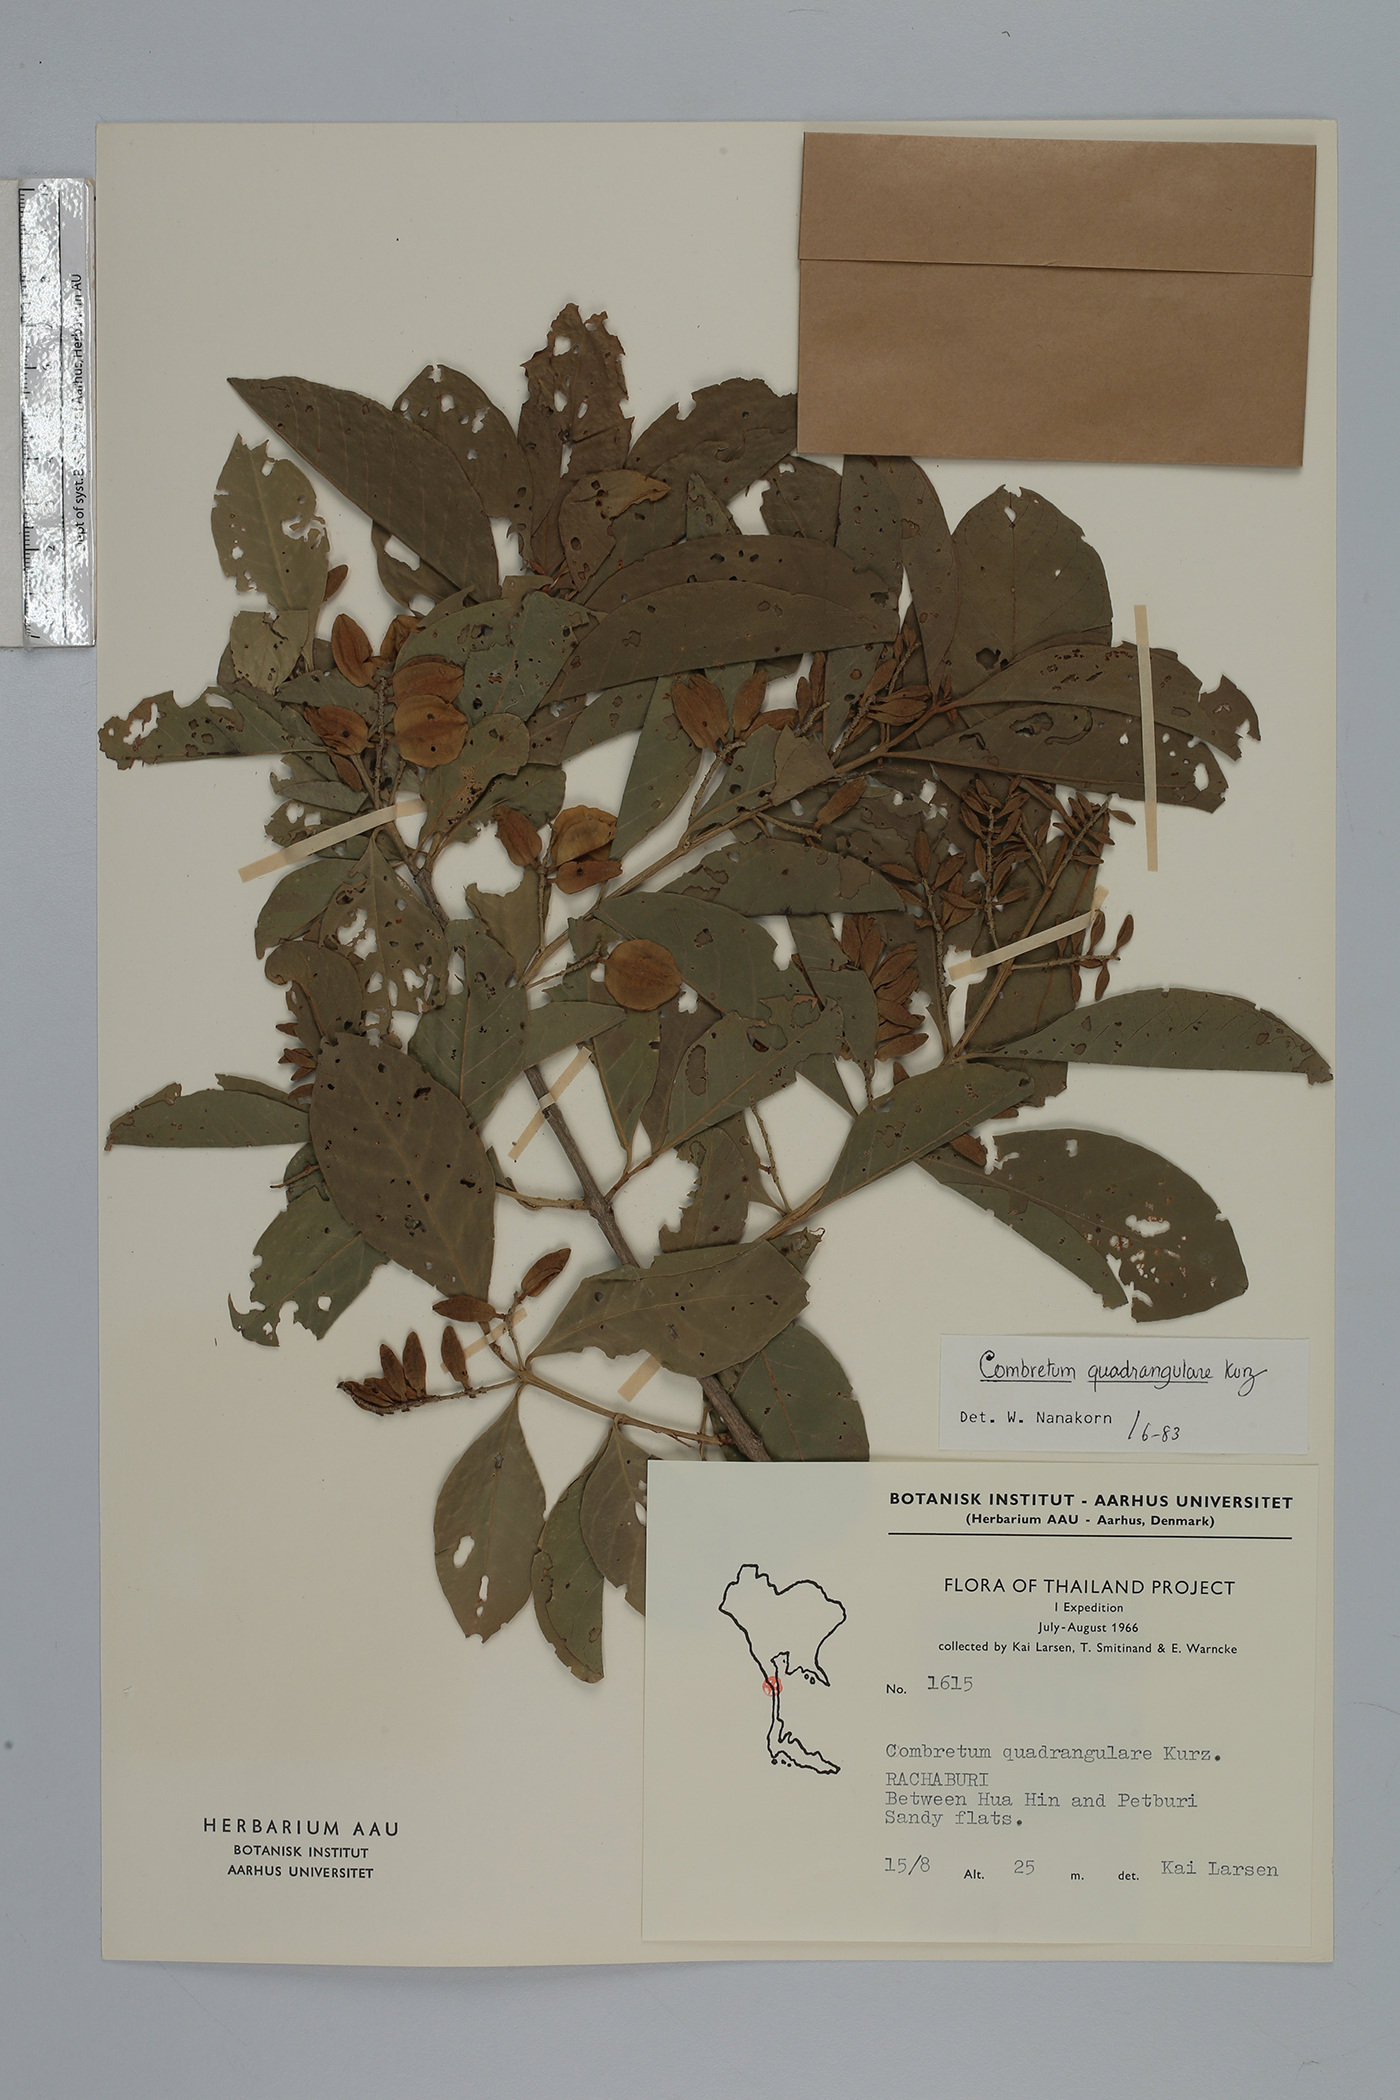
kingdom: Plantae
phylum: Tracheophyta
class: Magnoliopsida
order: Myrtales
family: Combretaceae
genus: Combretum
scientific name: Combretum quadrangulare
